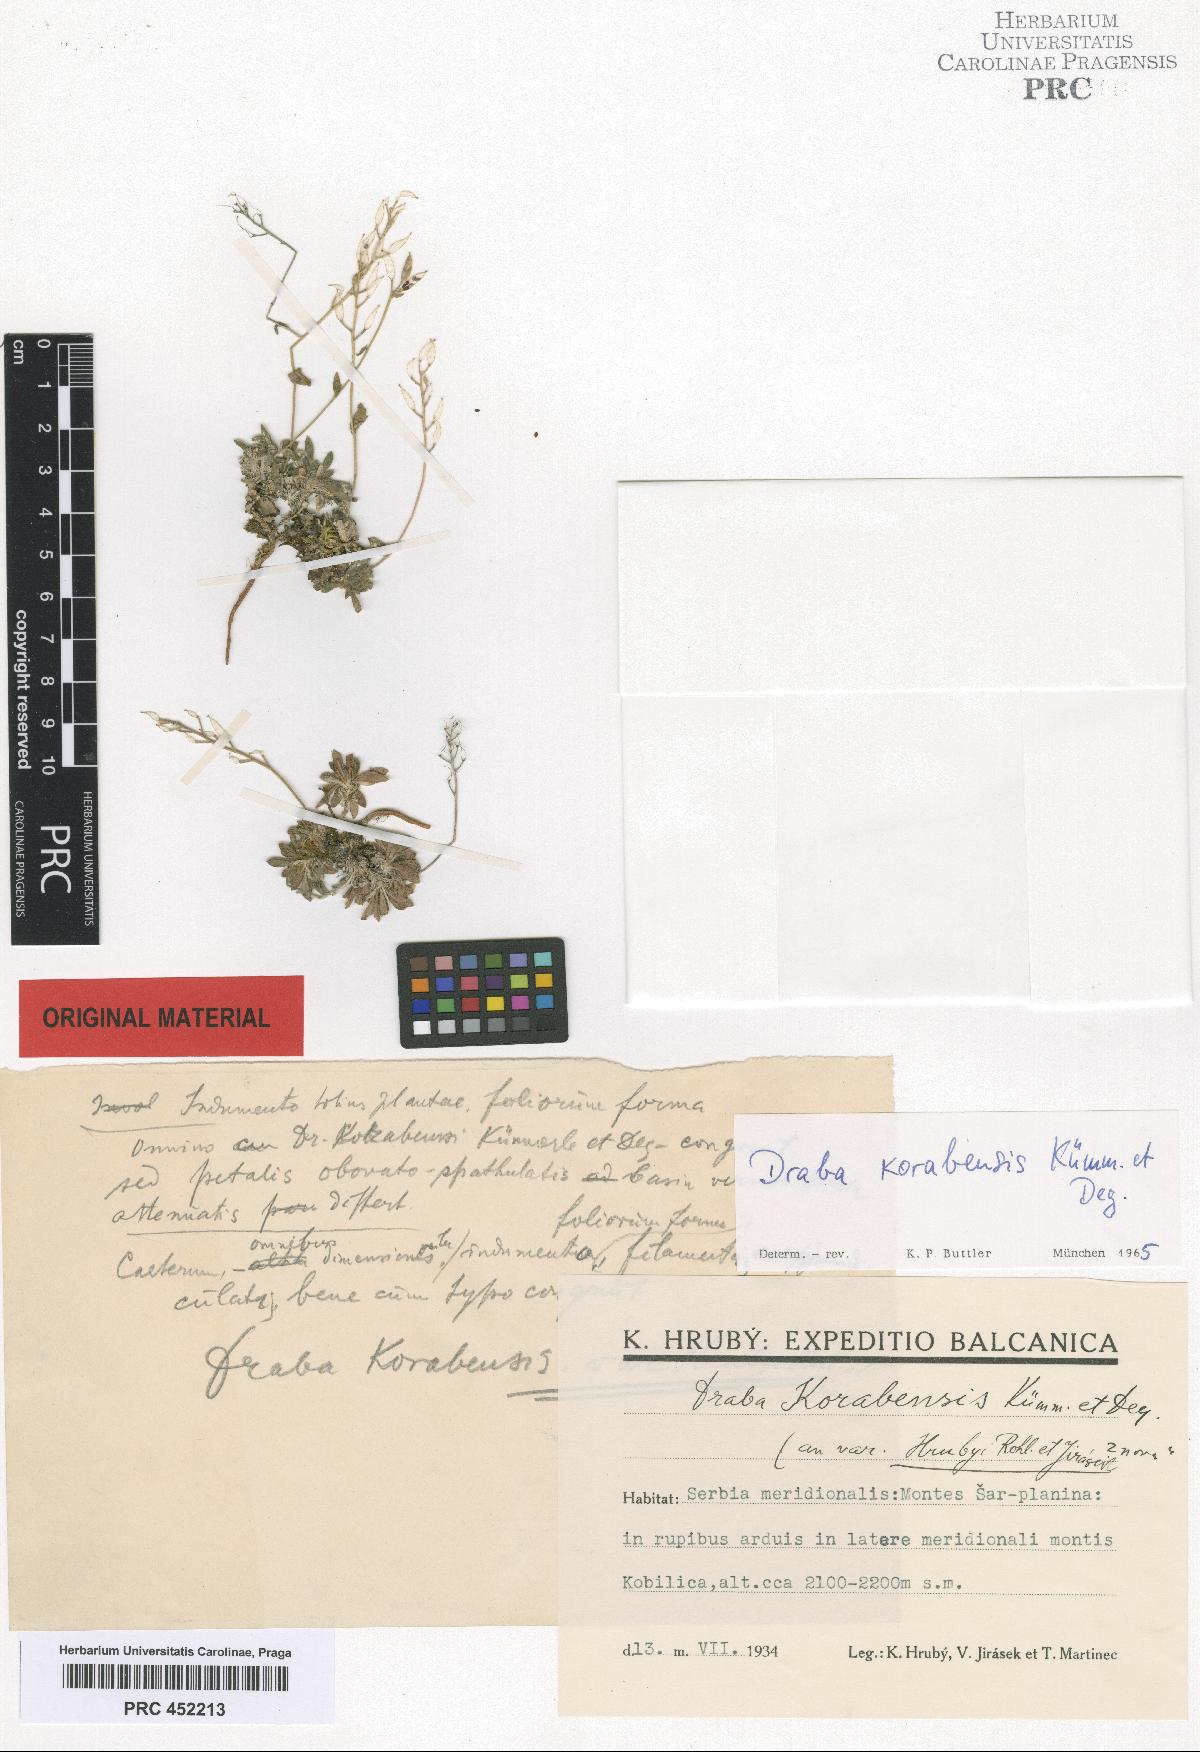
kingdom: Plantae
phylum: Tracheophyta
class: Magnoliopsida
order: Brassicales
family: Brassicaceae
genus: Draba
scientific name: Draba korabensis
